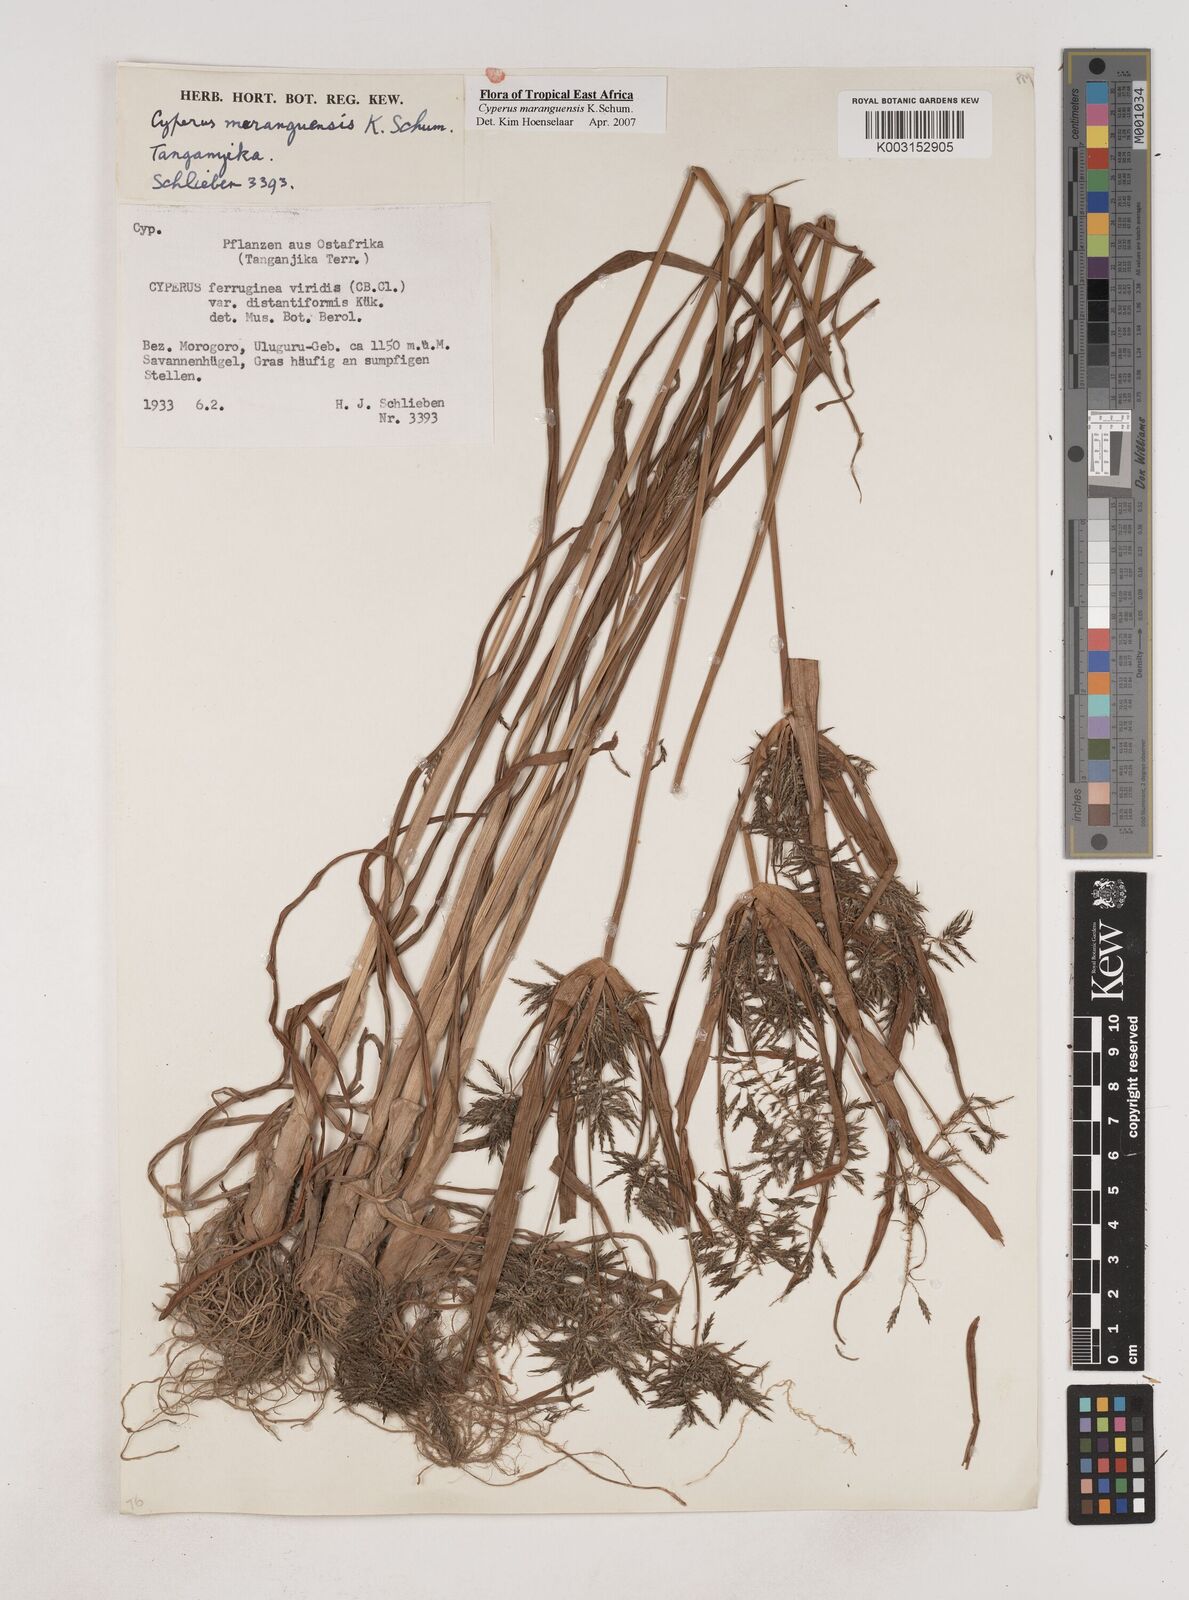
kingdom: Plantae
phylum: Tracheophyta
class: Liliopsida
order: Poales
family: Cyperaceae
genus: Cyperus
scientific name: Cyperus maranguensis
